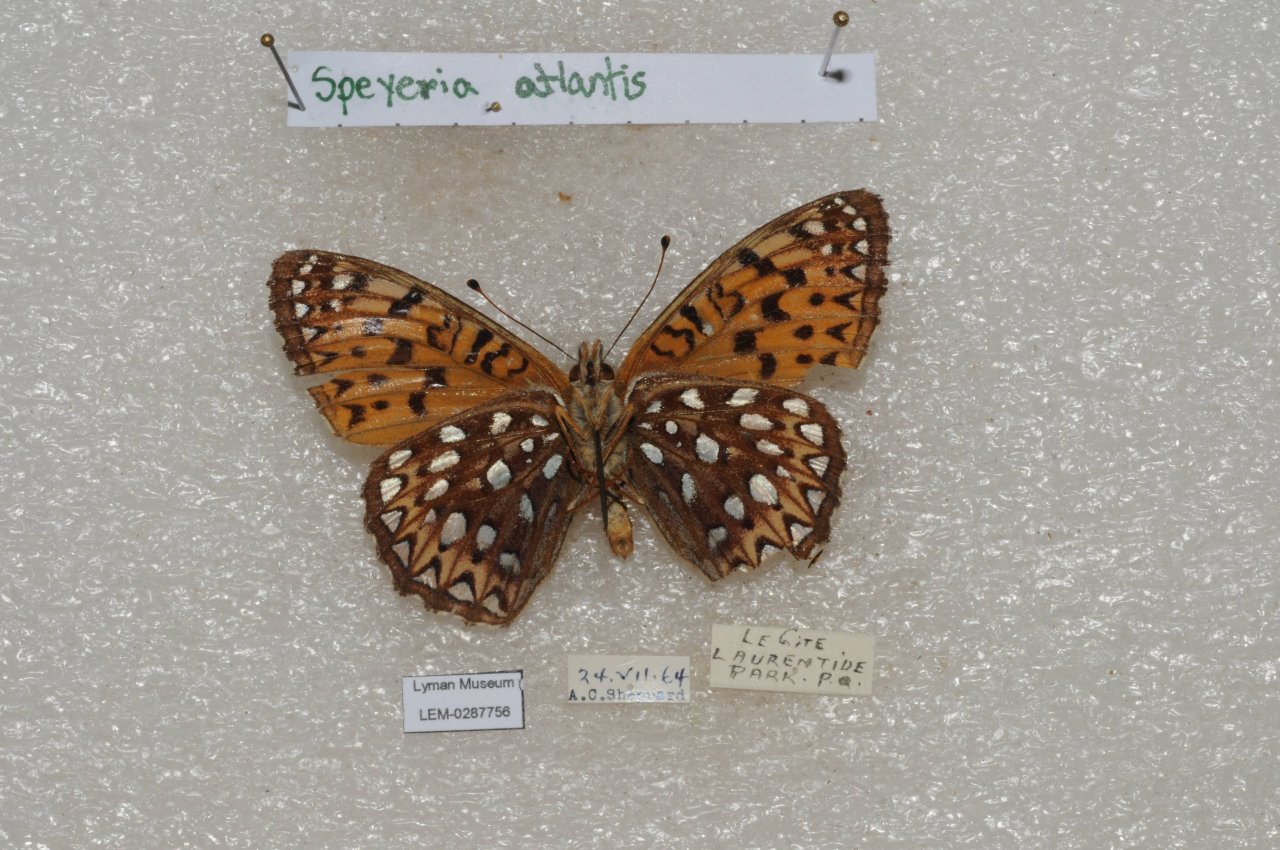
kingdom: Animalia
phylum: Arthropoda
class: Insecta
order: Lepidoptera
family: Nymphalidae
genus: Speyeria
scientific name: Speyeria atlantis
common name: Atlantis Fritillary
